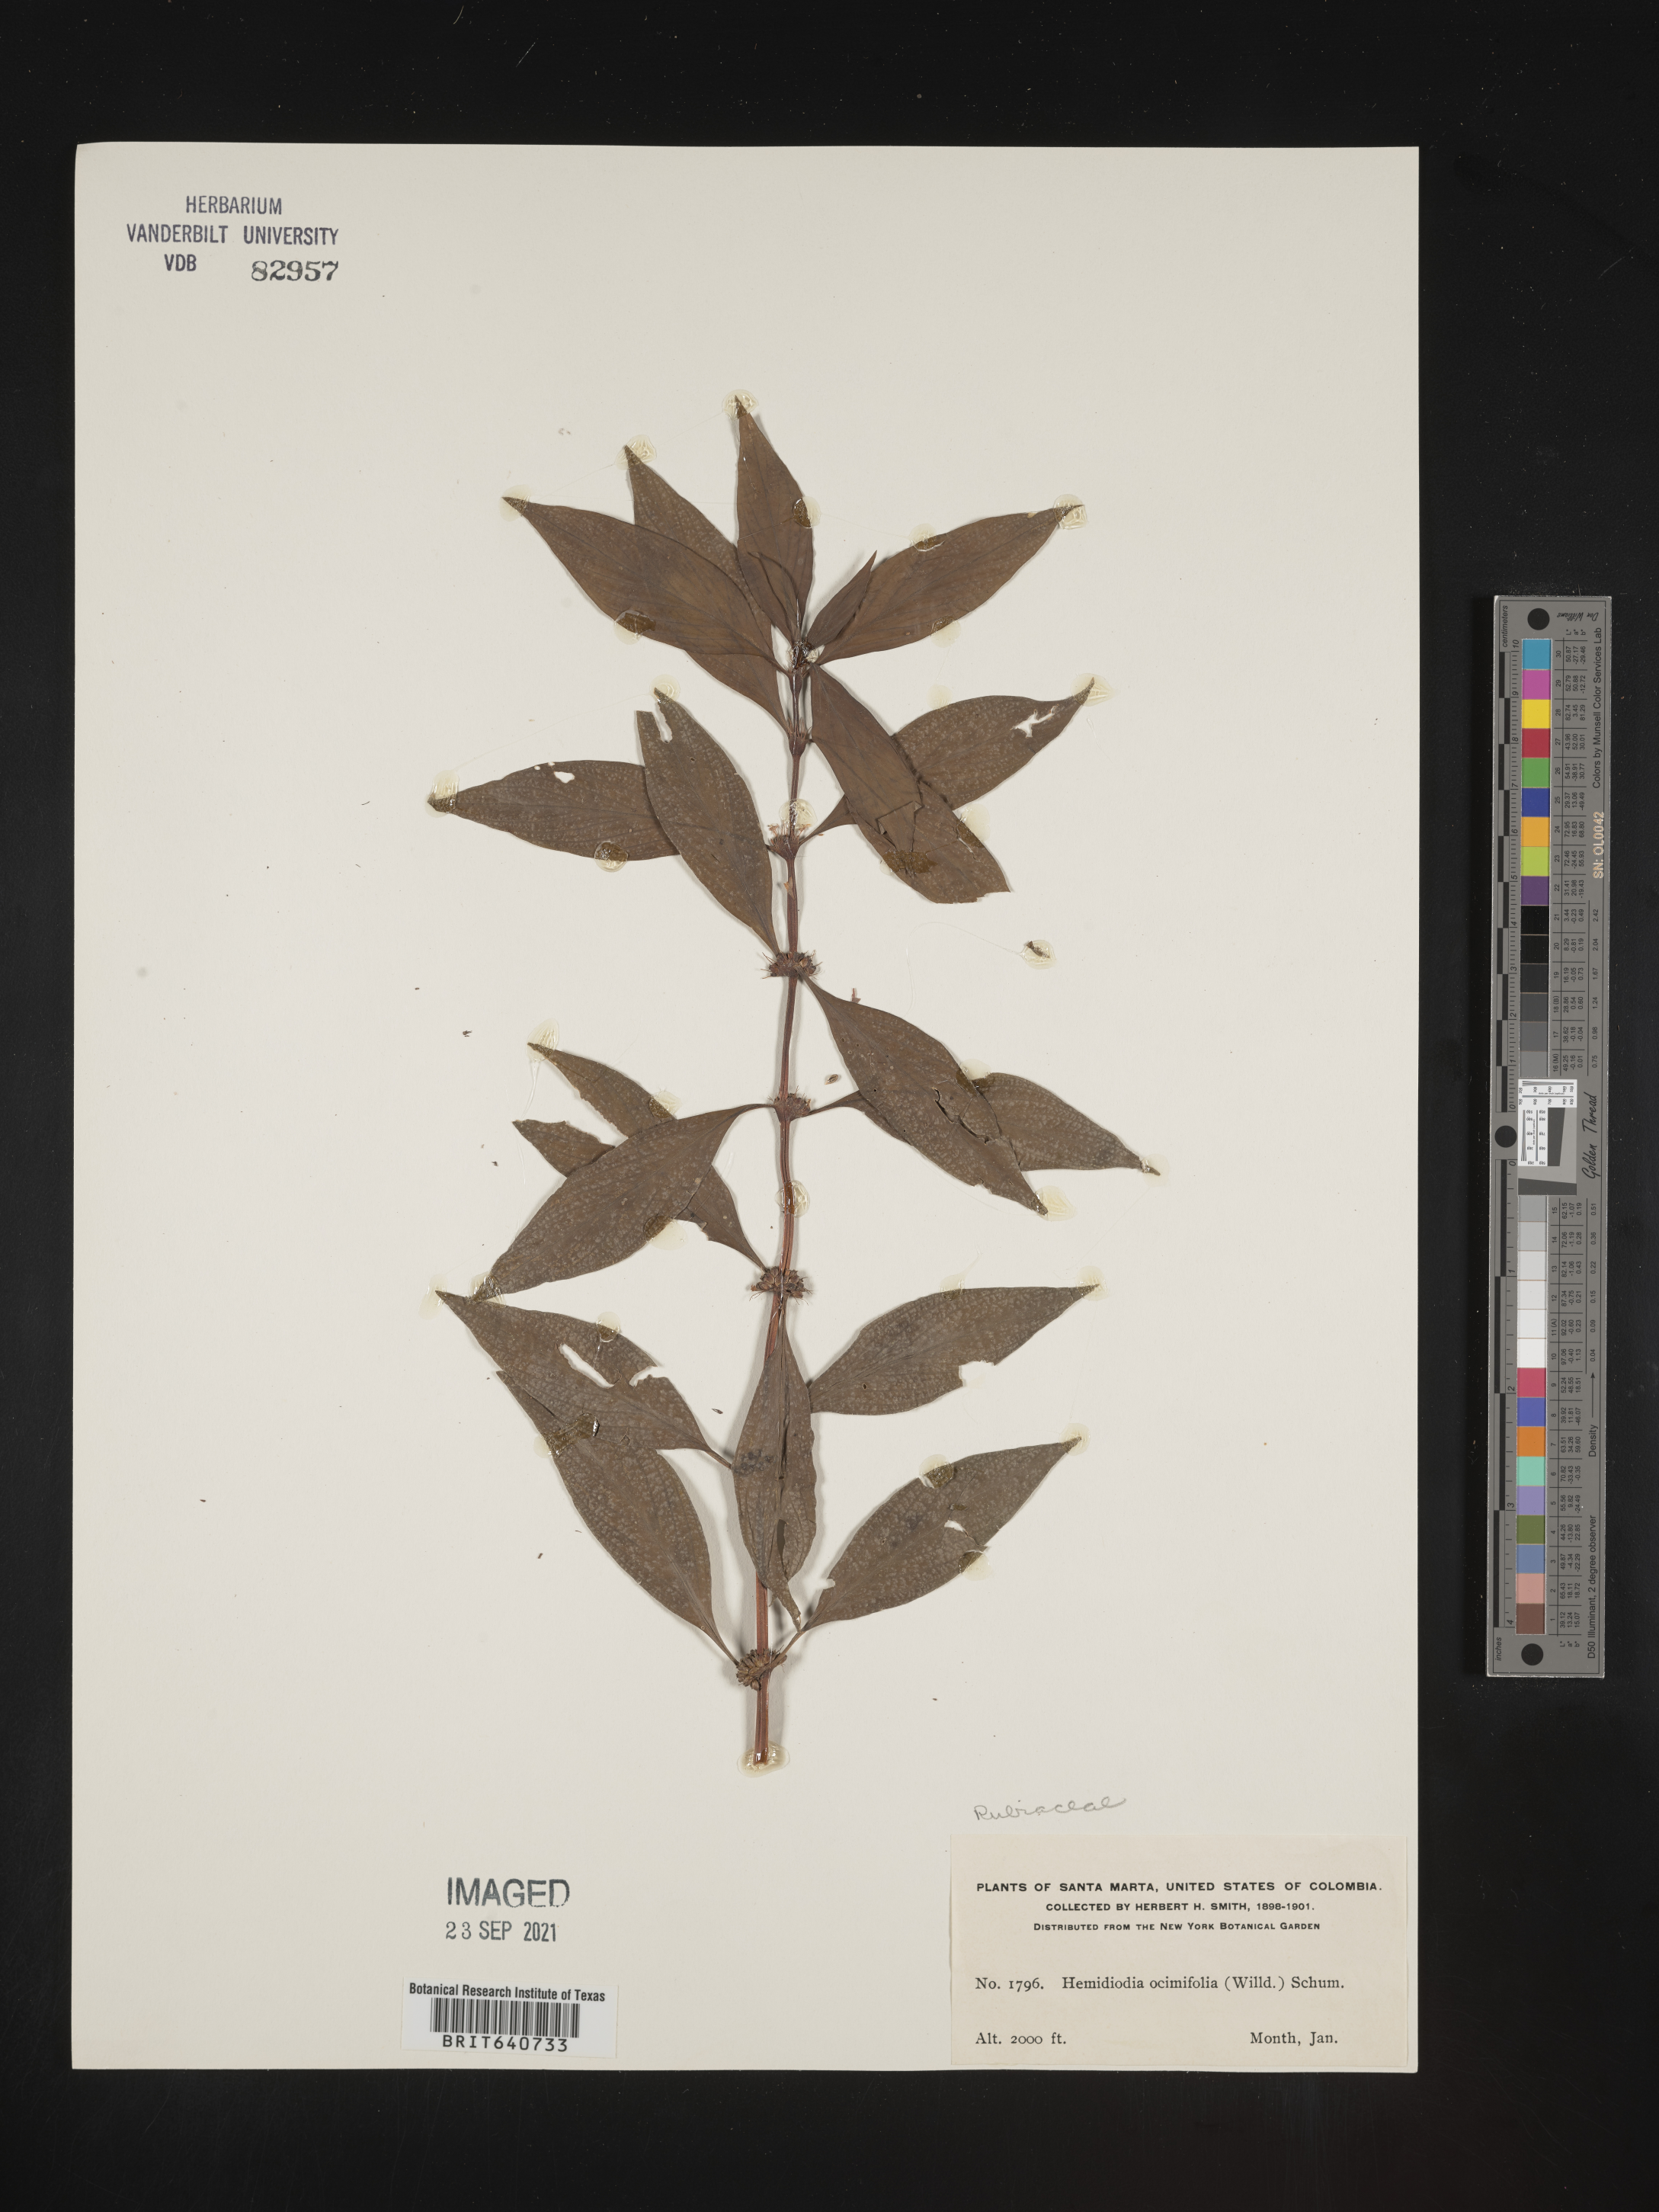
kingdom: Plantae
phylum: Tracheophyta
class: Magnoliopsida
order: Gentianales
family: Rubiaceae
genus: Spermacoce
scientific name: Spermacoce
